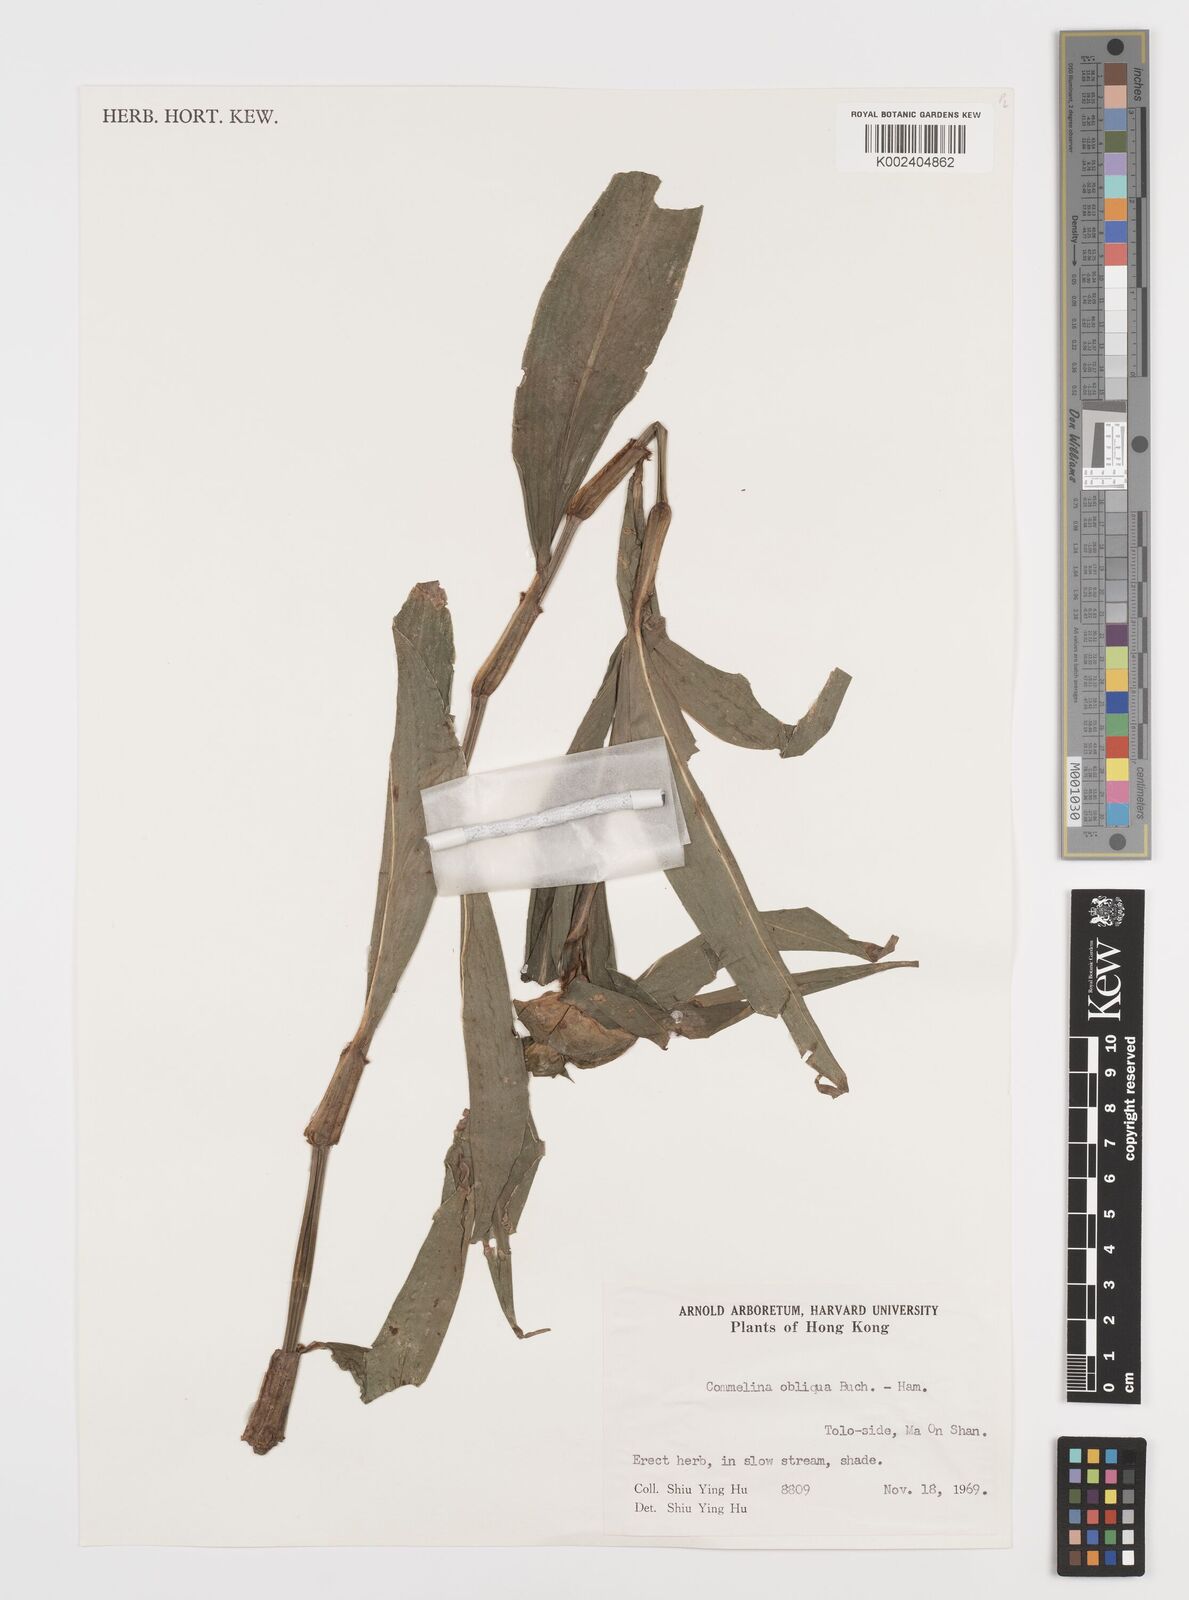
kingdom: Plantae
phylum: Tracheophyta
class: Liliopsida
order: Commelinales
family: Commelinaceae
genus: Commelina
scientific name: Commelina obliqua
